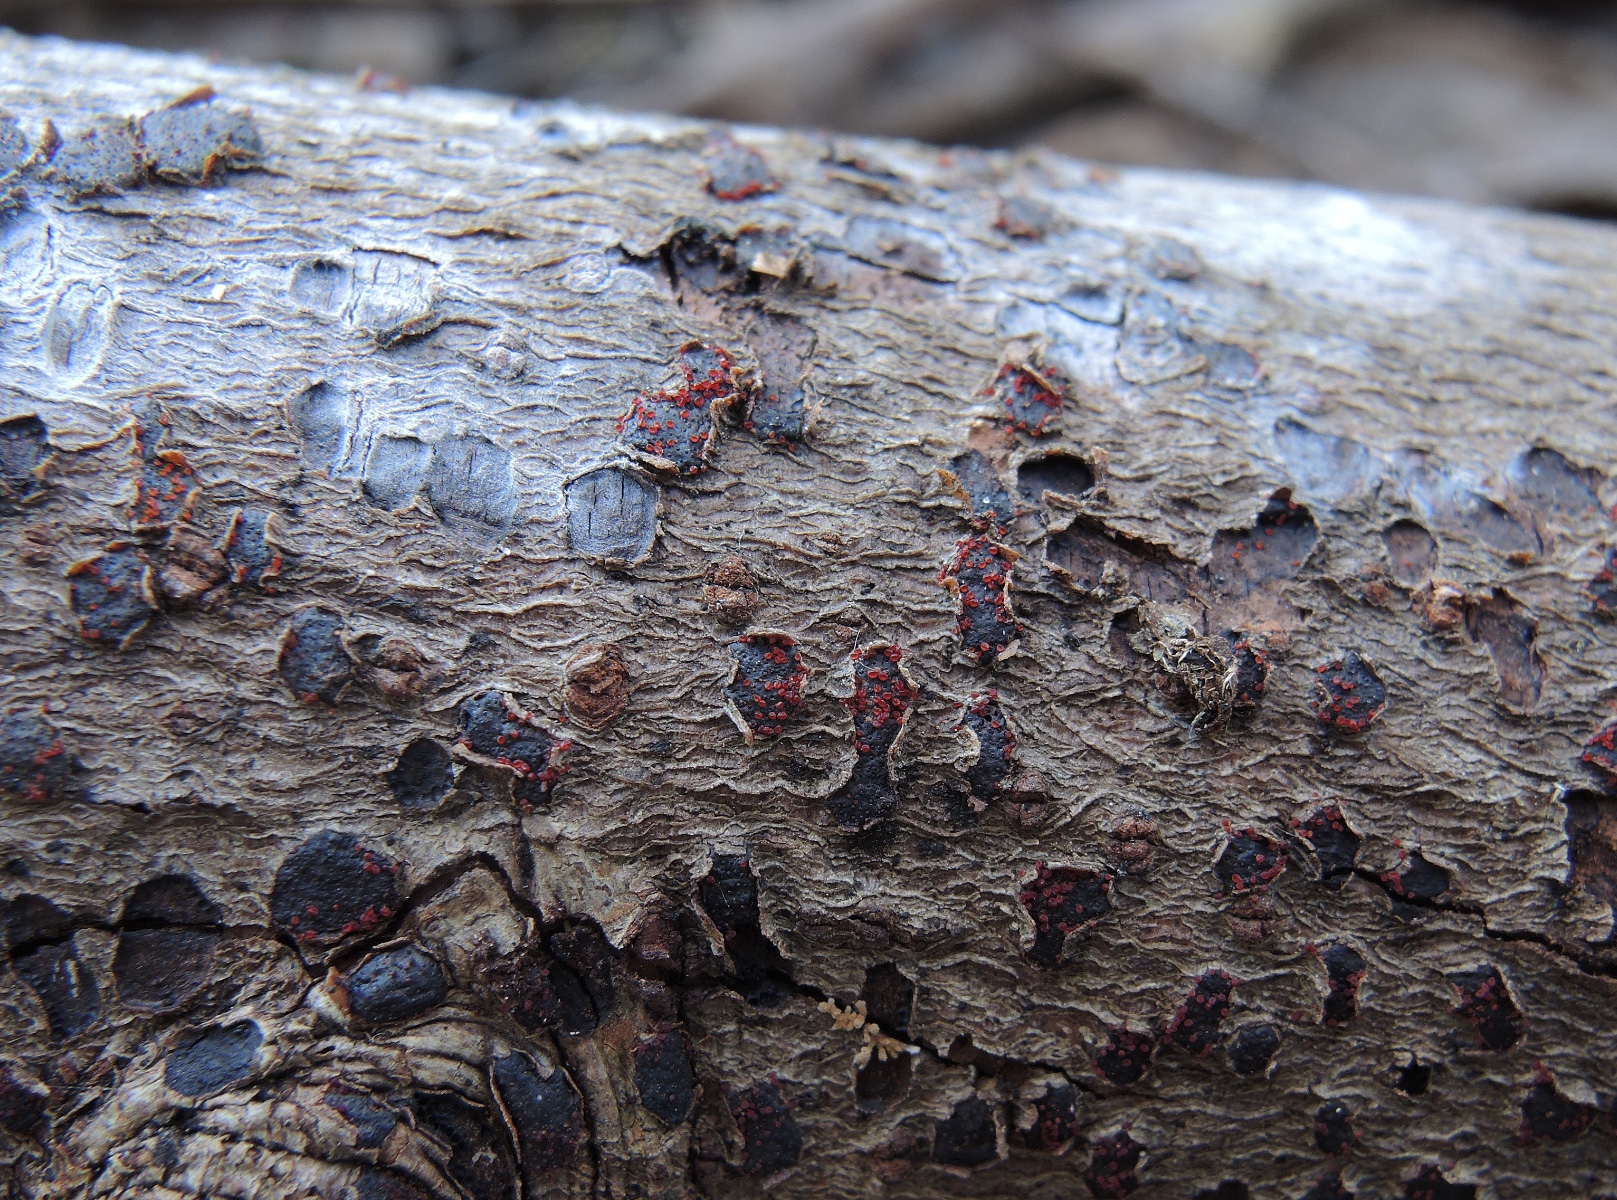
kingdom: Fungi
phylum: Ascomycota
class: Sordariomycetes
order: Hypocreales
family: Nectriaceae
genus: Dialonectria
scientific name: Dialonectria diatrypicola
